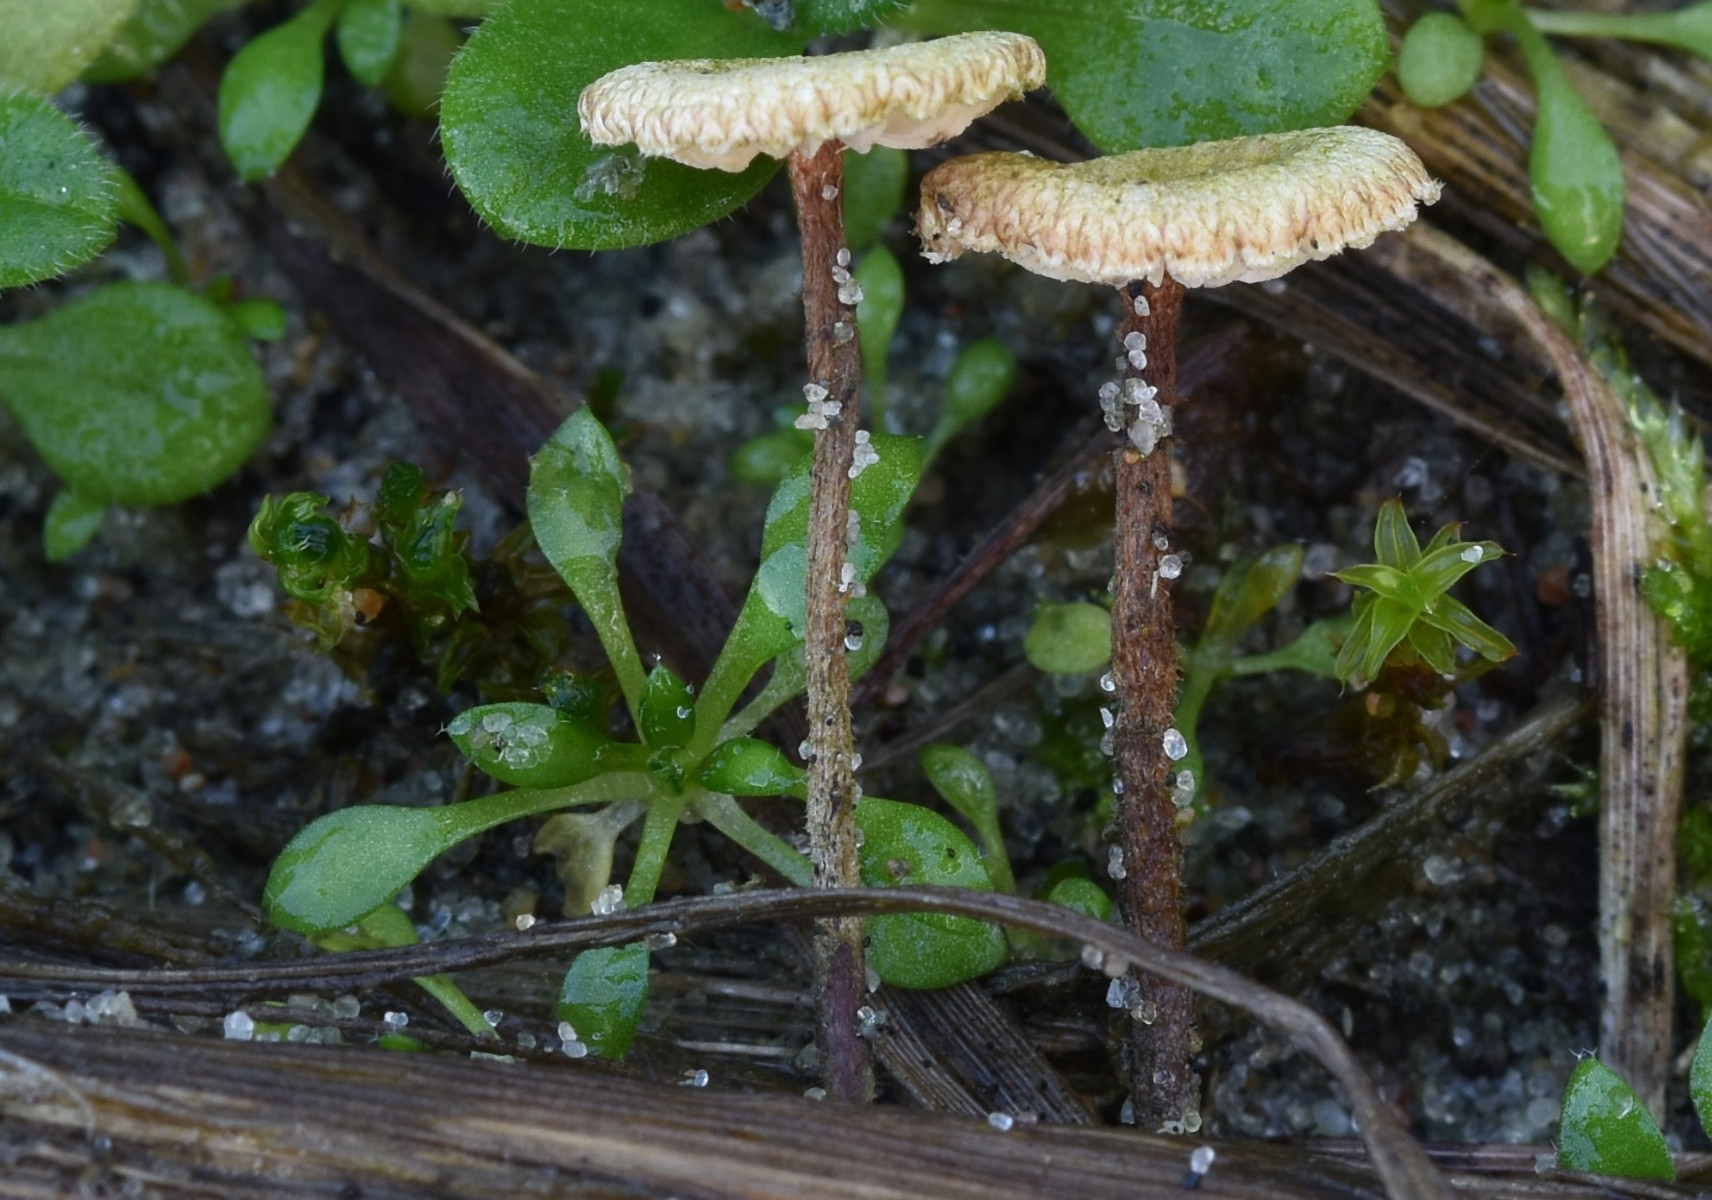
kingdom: Fungi
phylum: Basidiomycota
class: Agaricomycetes
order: Agaricales
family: Marasmiaceae
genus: Crinipellis
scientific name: Crinipellis scabella
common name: børstefod
